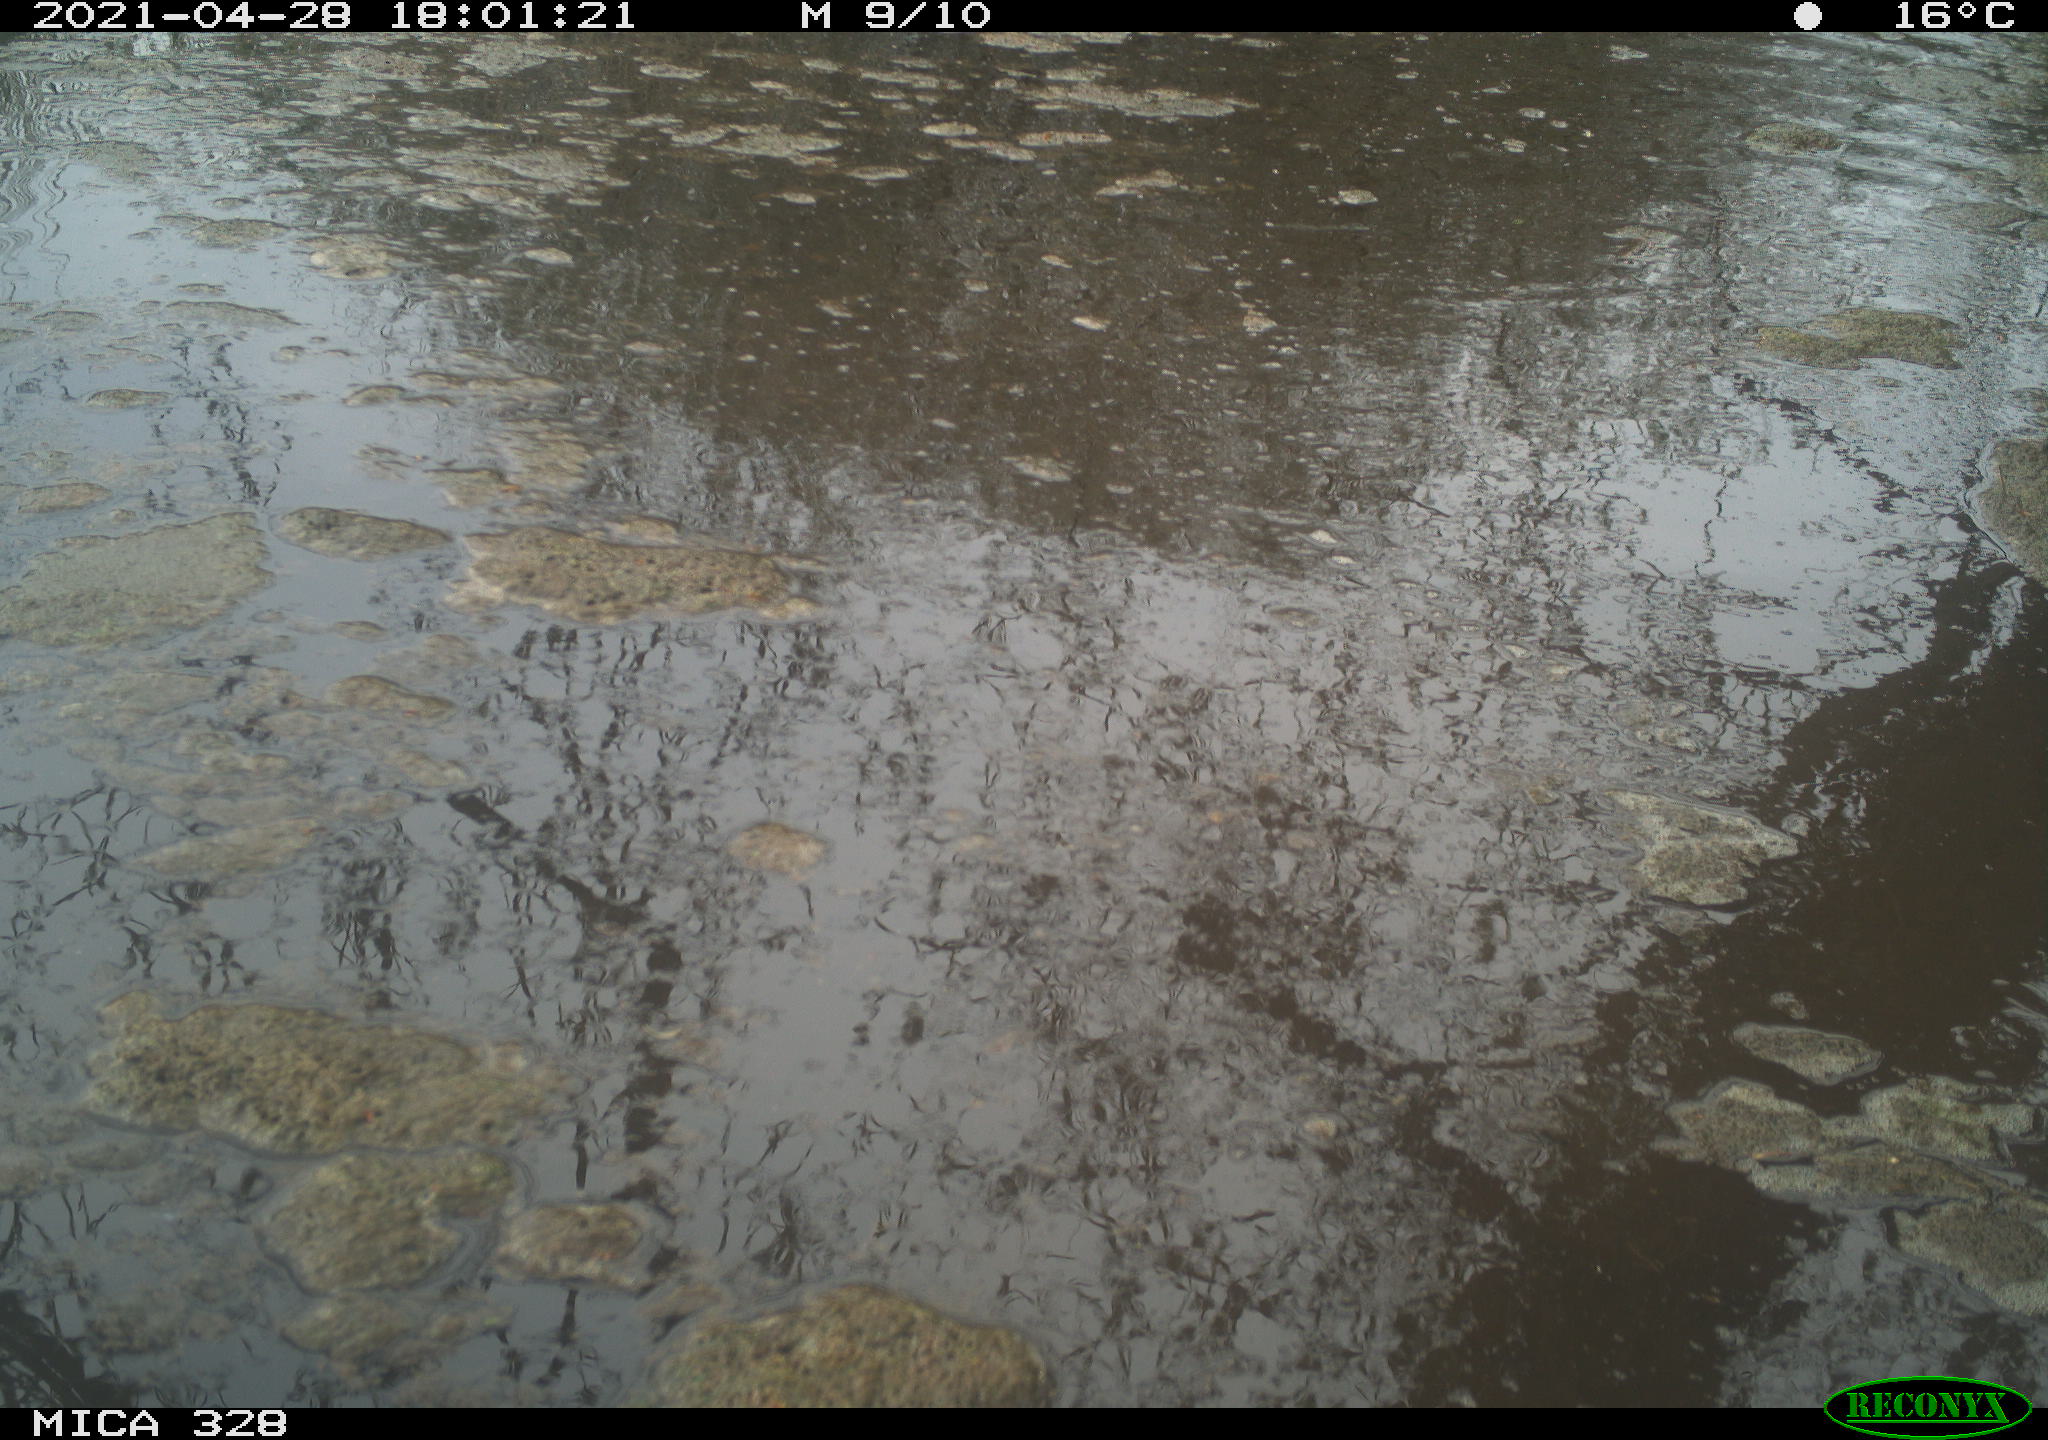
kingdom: Animalia
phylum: Chordata
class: Mammalia
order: Rodentia
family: Cricetidae
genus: Ondatra
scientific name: Ondatra zibethicus
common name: Muskrat
